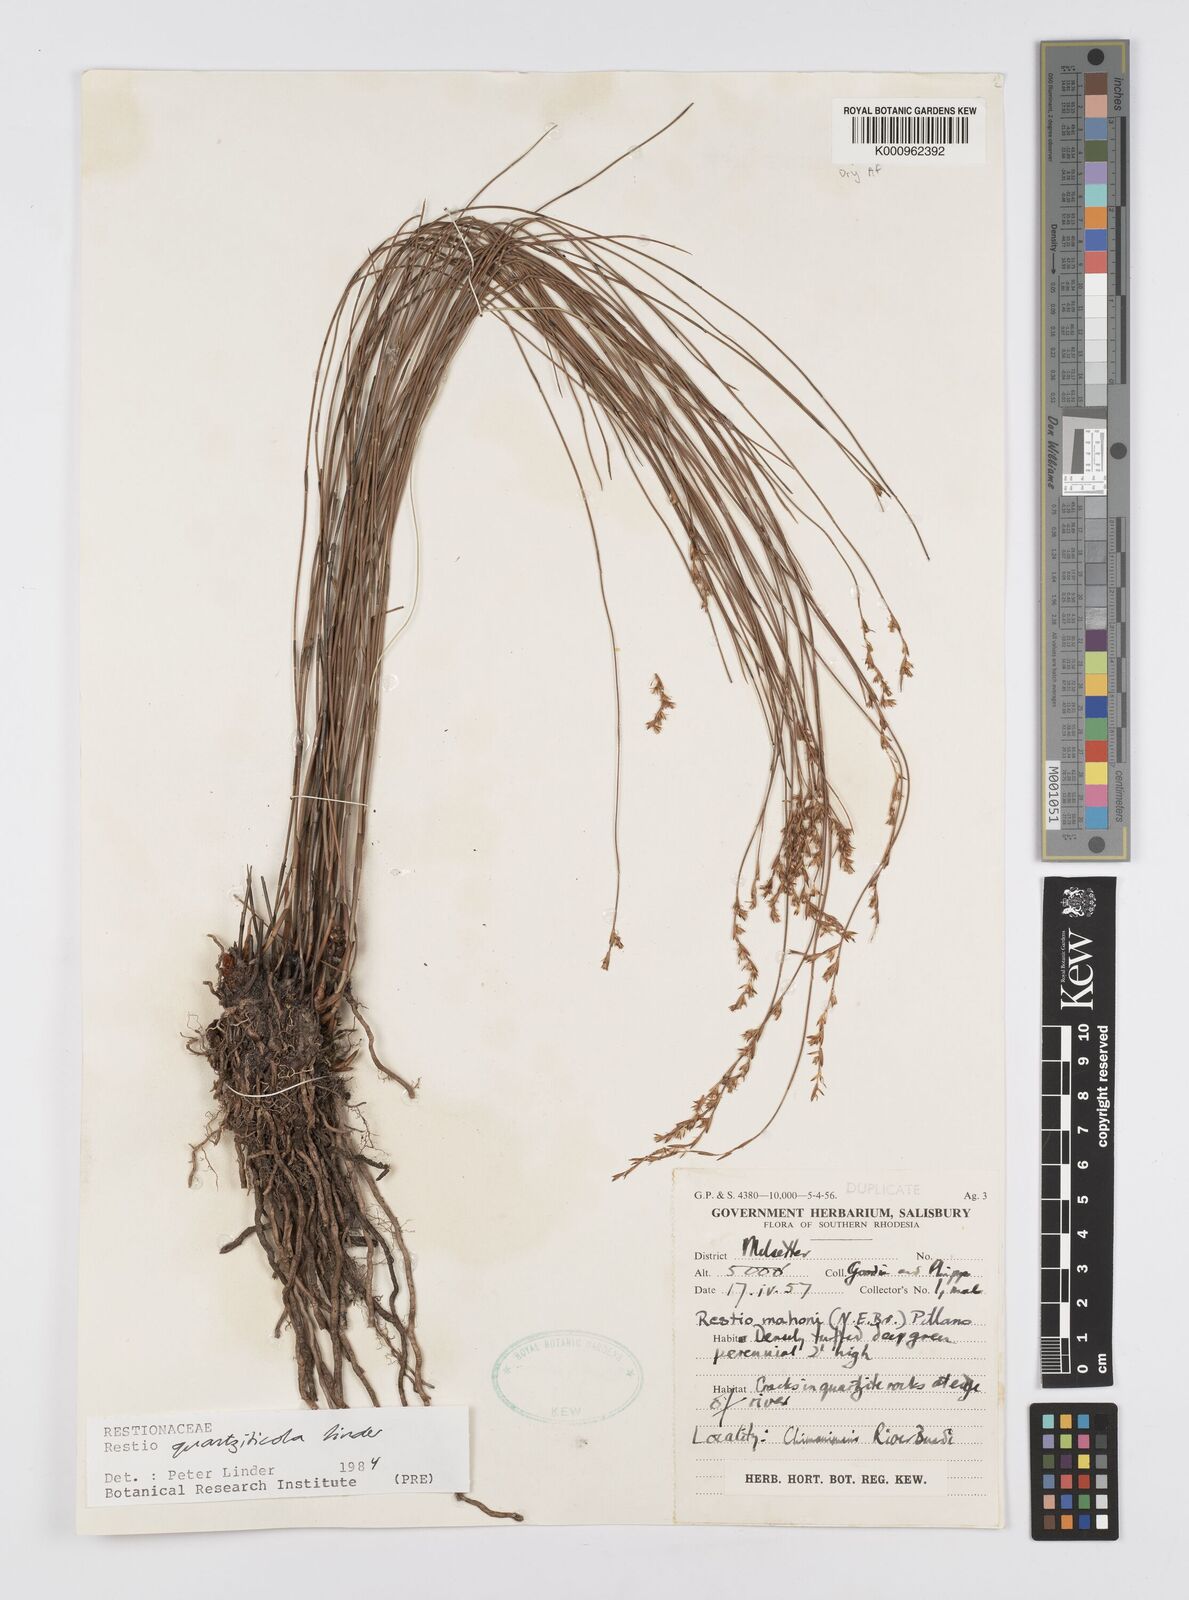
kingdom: Plantae
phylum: Tracheophyta
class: Liliopsida
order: Poales
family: Restionaceae
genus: Platycaulos
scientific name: Platycaulos quartziticola
